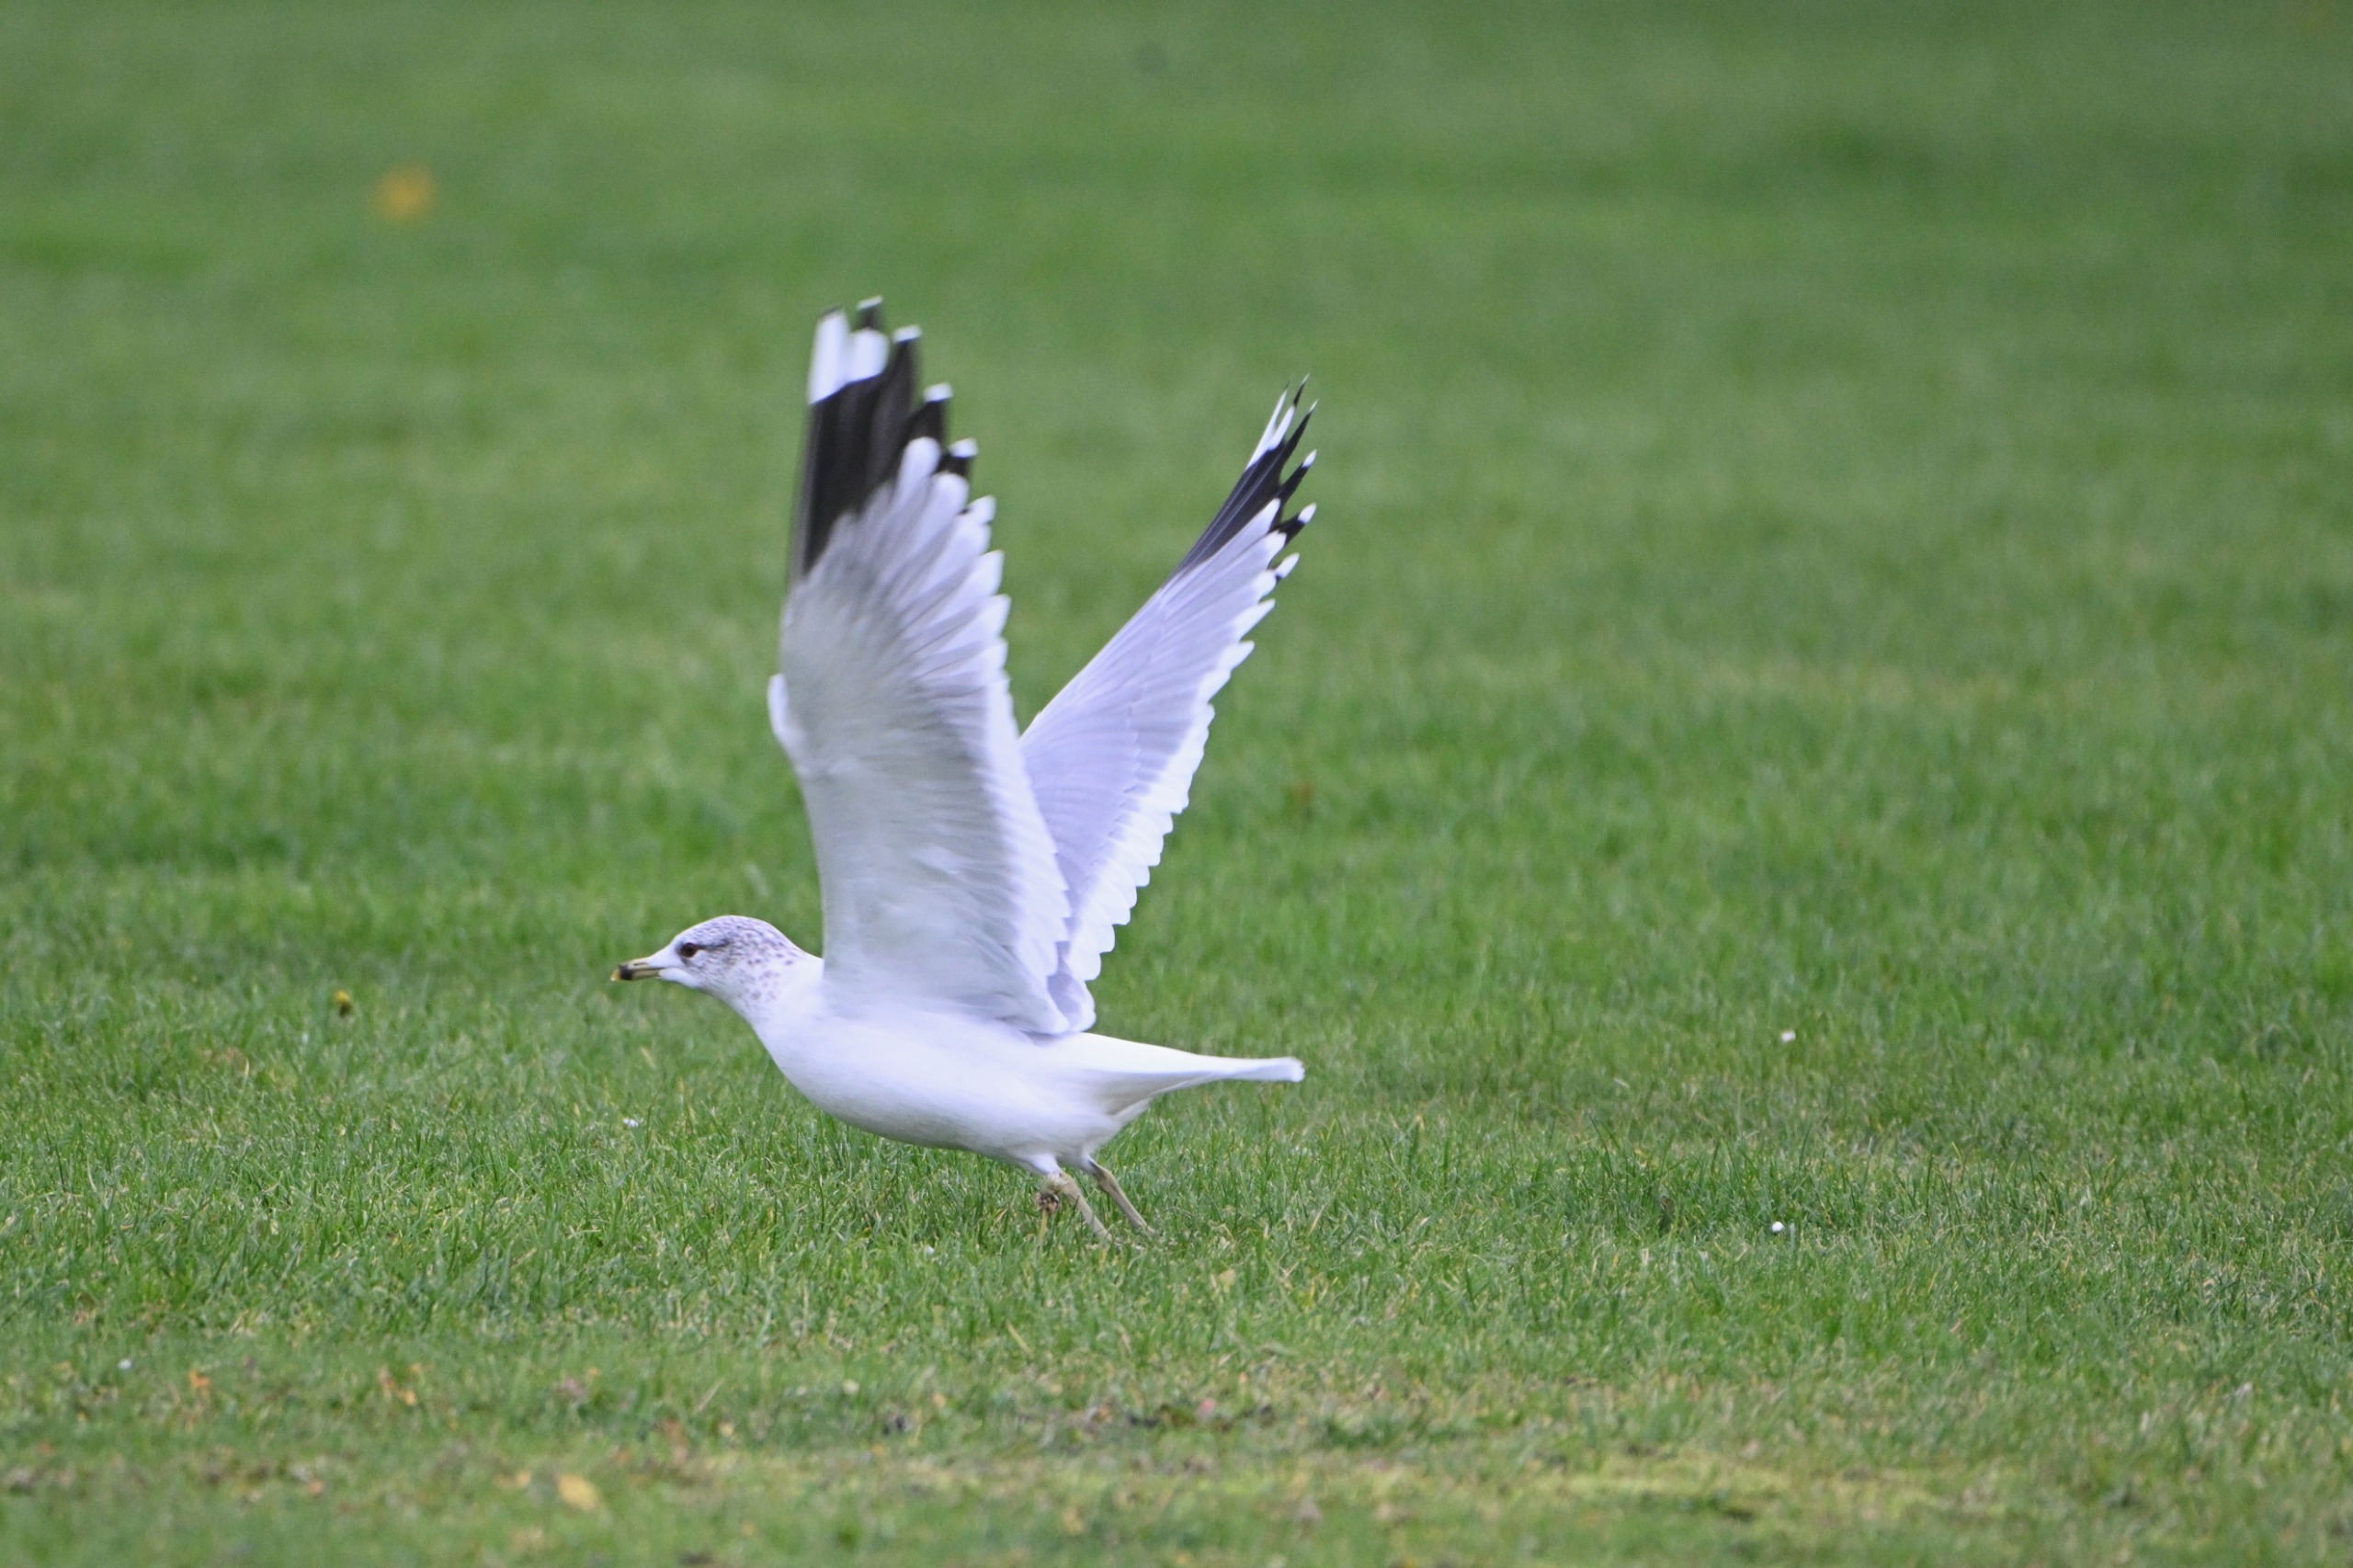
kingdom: Animalia
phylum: Chordata
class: Aves
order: Charadriiformes
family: Laridae
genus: Larus
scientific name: Larus canus
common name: Stormmåge
